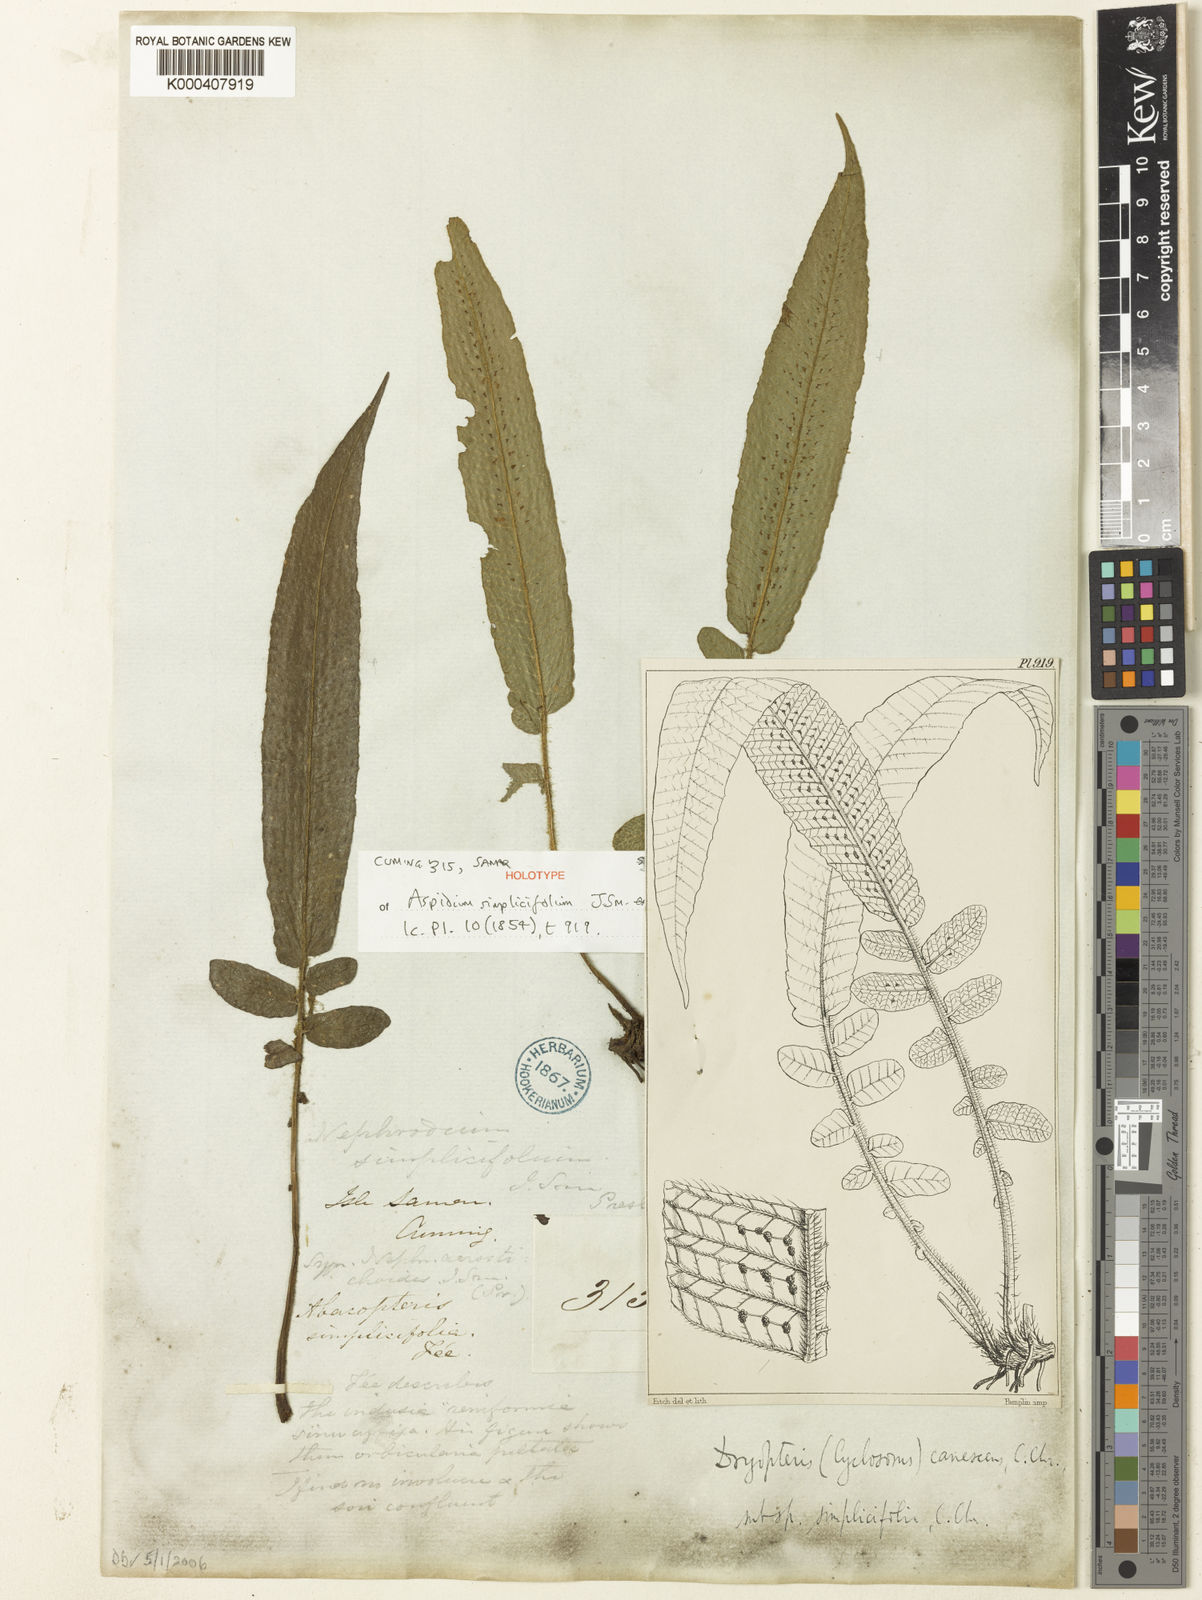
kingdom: Plantae
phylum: Tracheophyta
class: Polypodiopsida
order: Polypodiales
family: Thelypteridaceae
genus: Sphaerostephanos
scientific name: Sphaerostephanos simplicifolius
